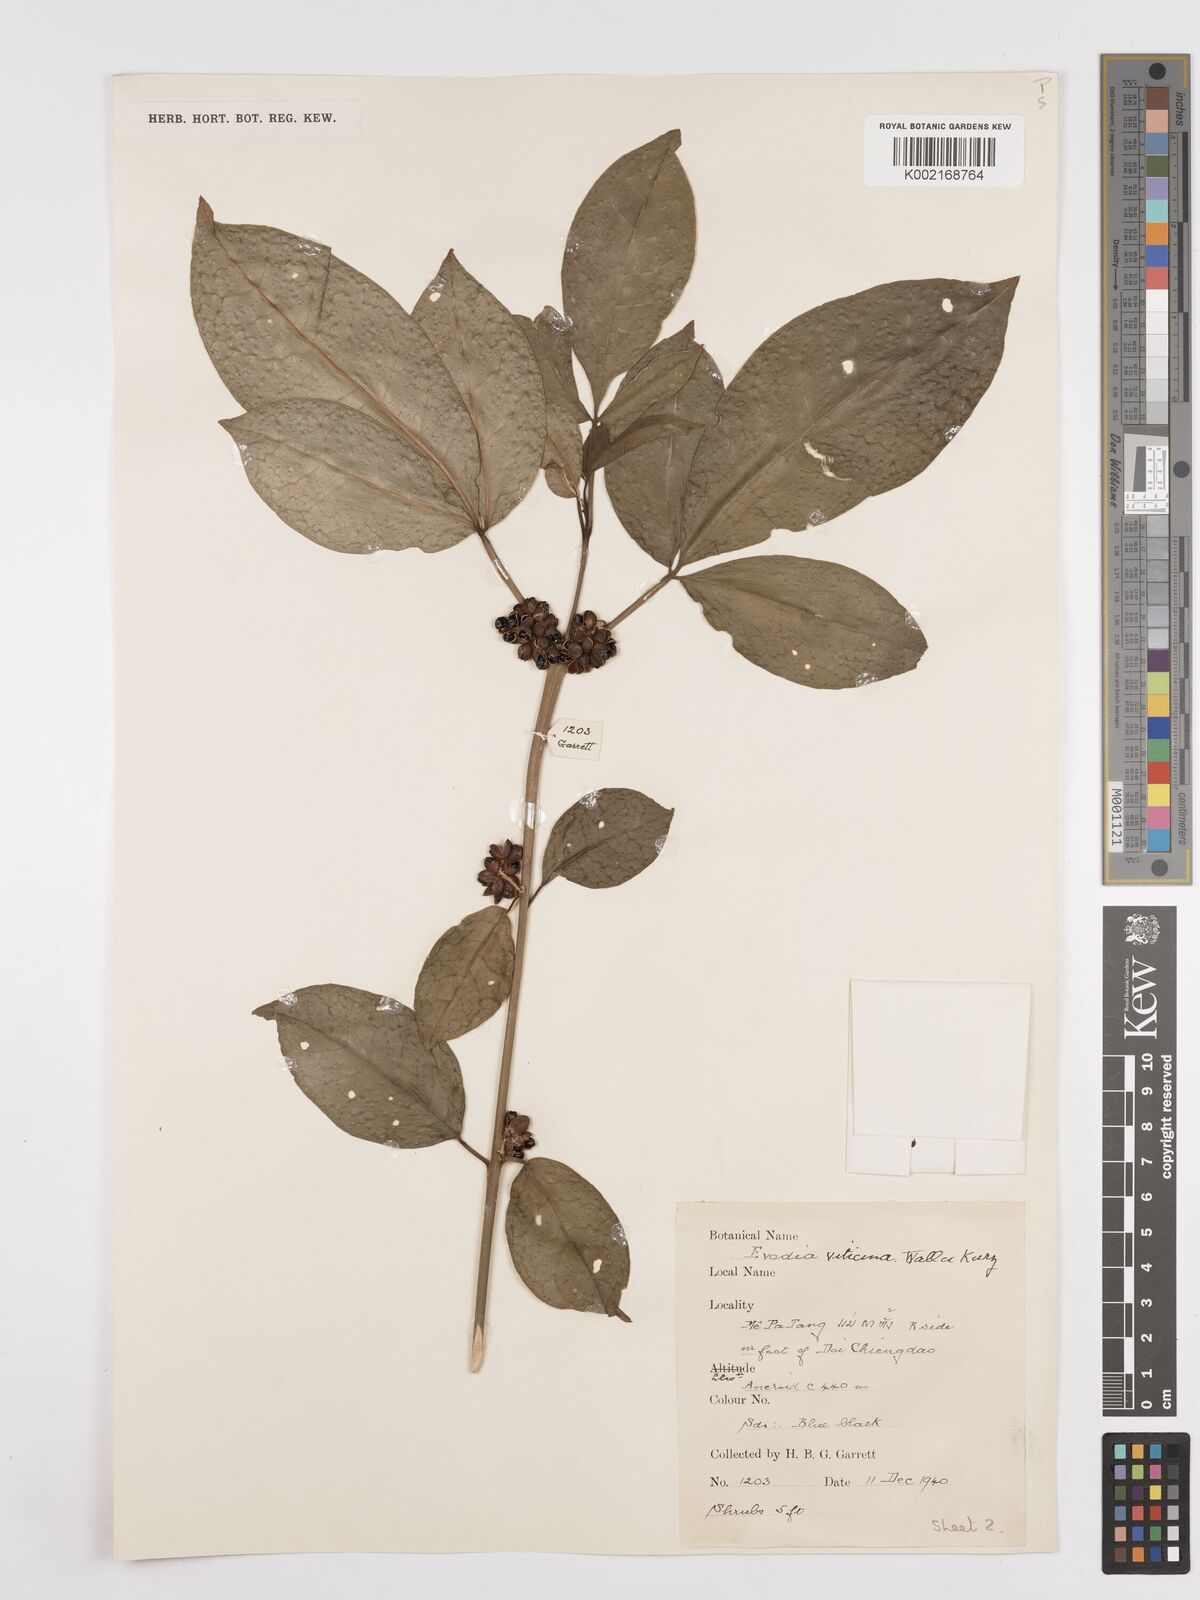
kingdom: Plantae
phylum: Tracheophyta
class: Magnoliopsida
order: Sapindales
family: Rutaceae
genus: Euodia
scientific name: Euodia
